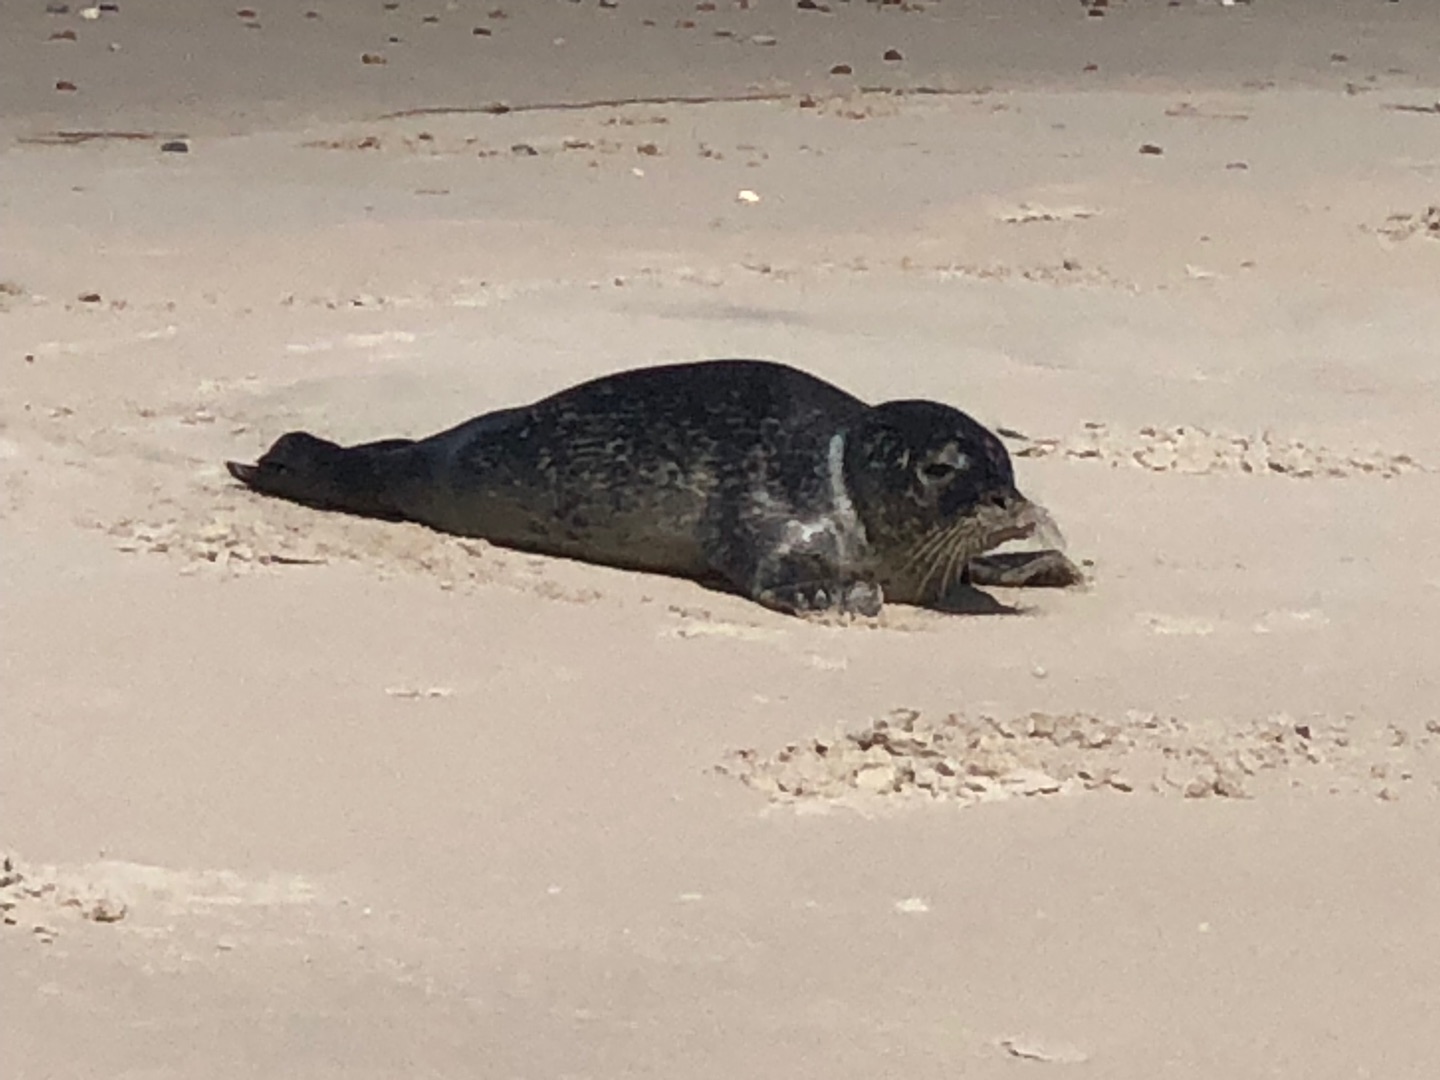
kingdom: Animalia
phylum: Chordata
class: Mammalia
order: Carnivora
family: Phocidae
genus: Phoca
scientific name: Phoca vitulina
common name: Spættet sæl
